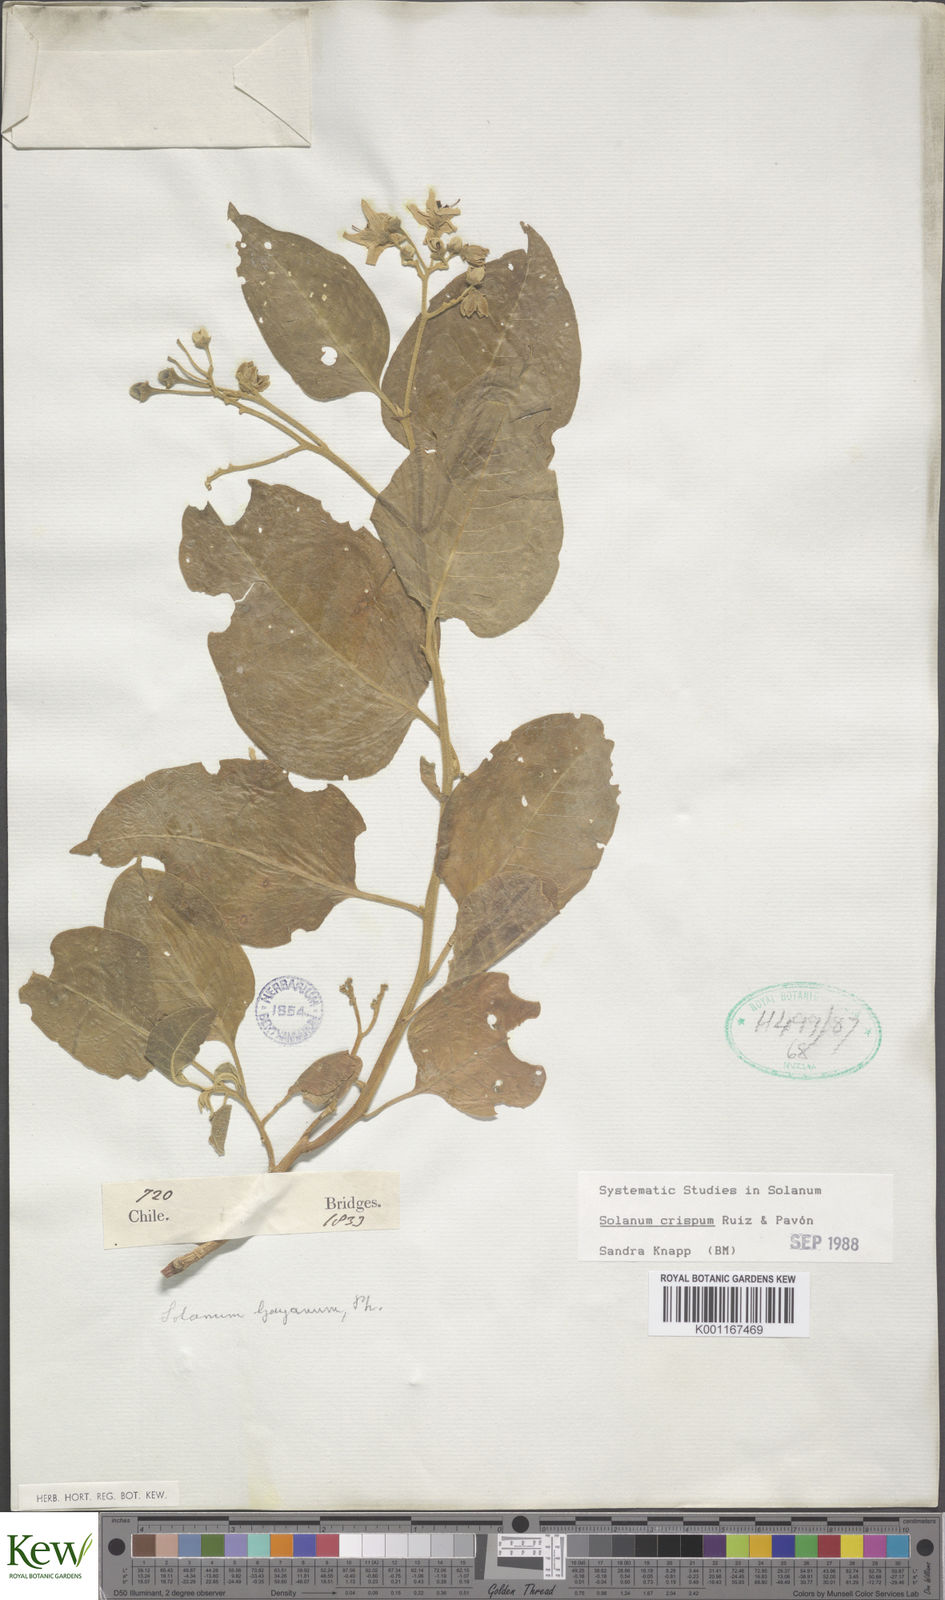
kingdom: Plantae
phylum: Tracheophyta
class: Magnoliopsida
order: Solanales
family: Solanaceae
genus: Solanum
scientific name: Solanum crispum
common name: Chilean nightshade
